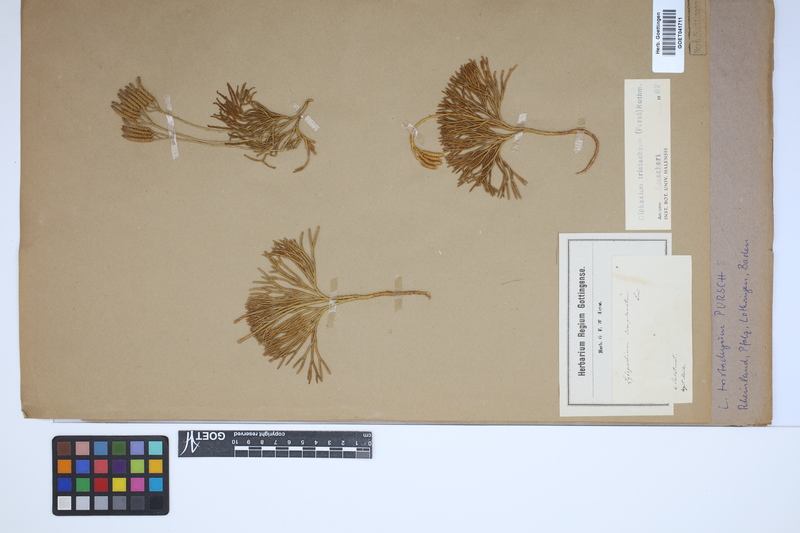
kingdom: Plantae
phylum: Tracheophyta
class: Lycopodiopsida
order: Lycopodiales
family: Lycopodiaceae
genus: Diphasiastrum
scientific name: Diphasiastrum tristachyum
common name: Blue ground-cedar
